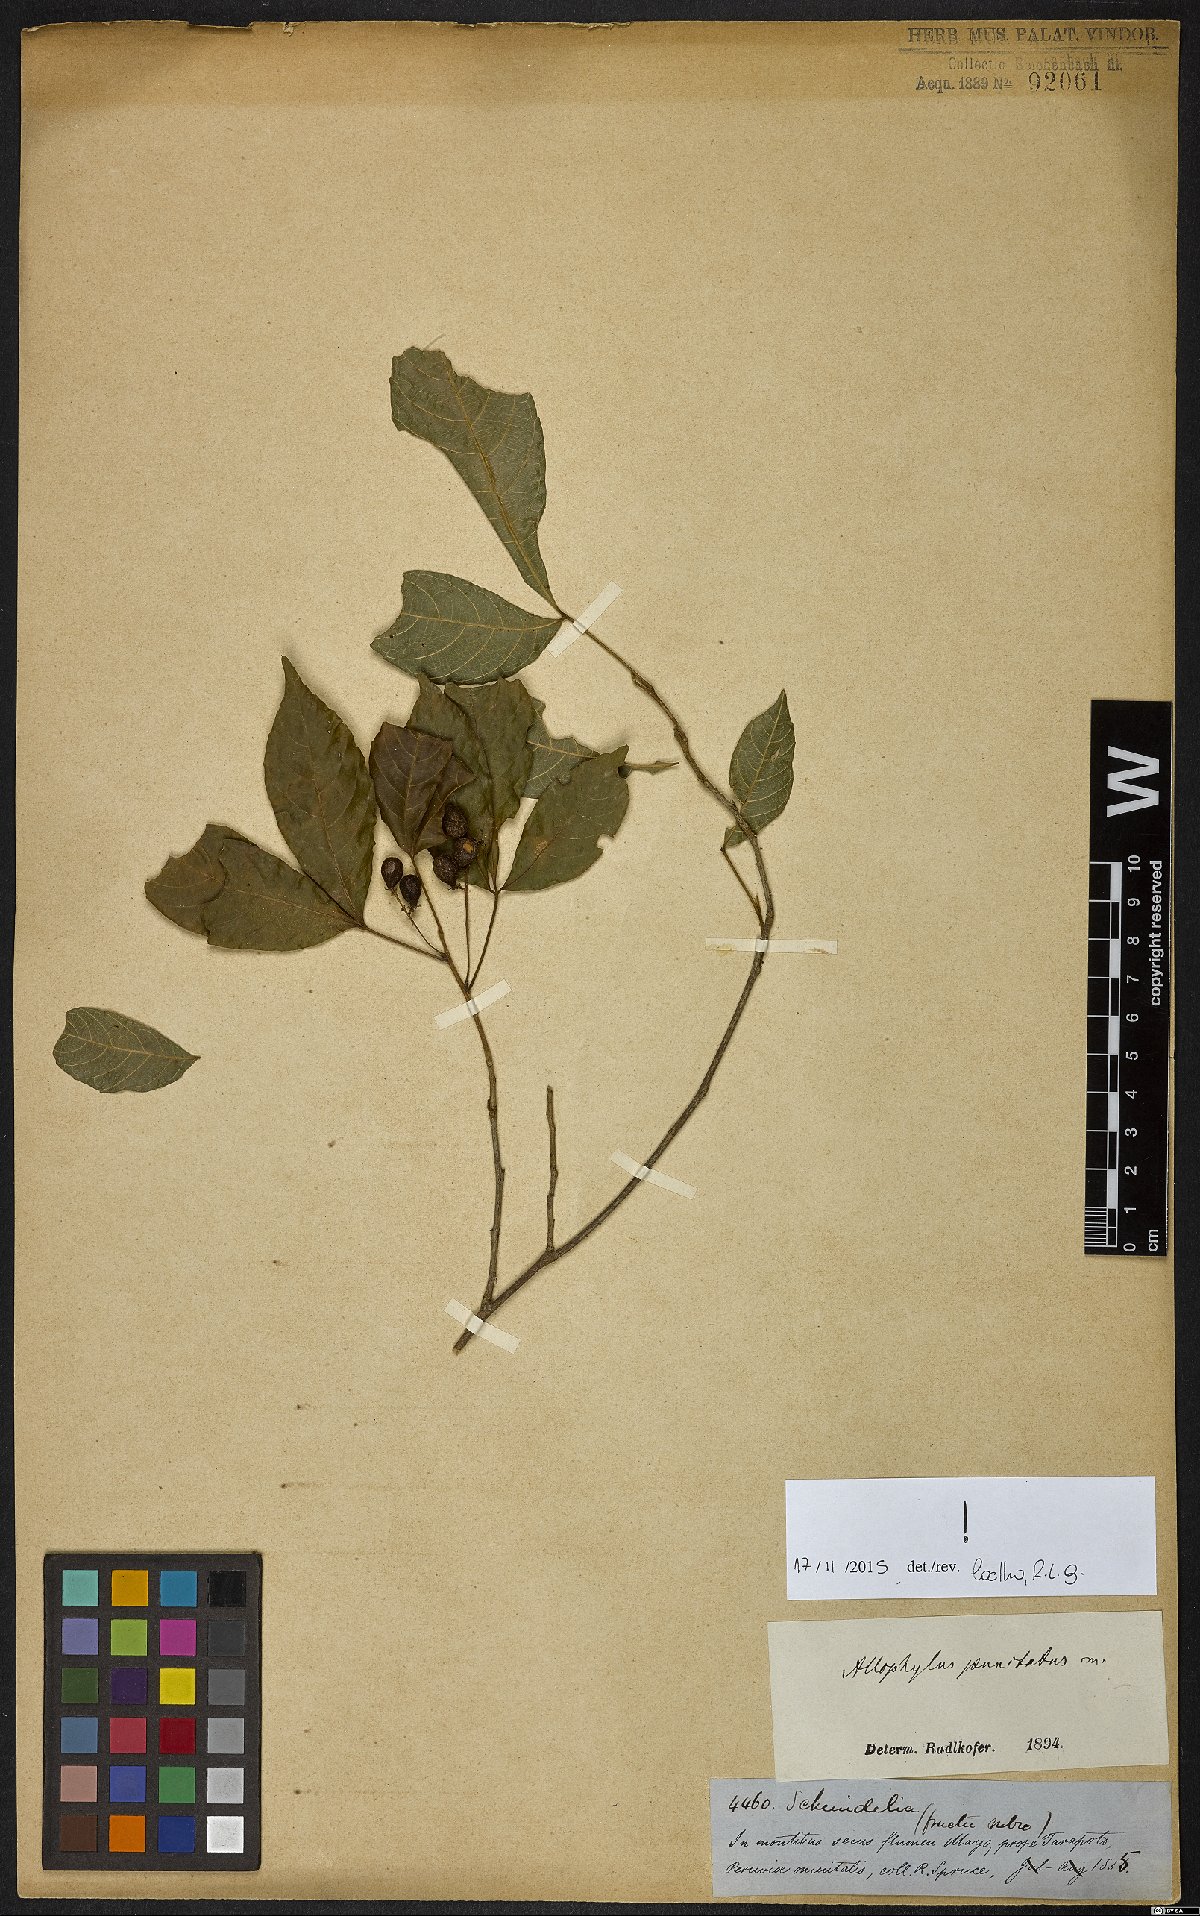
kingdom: Plantae
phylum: Tracheophyta
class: Magnoliopsida
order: Sapindales
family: Sapindaceae
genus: Allophylus
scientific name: Allophylus punctatus
